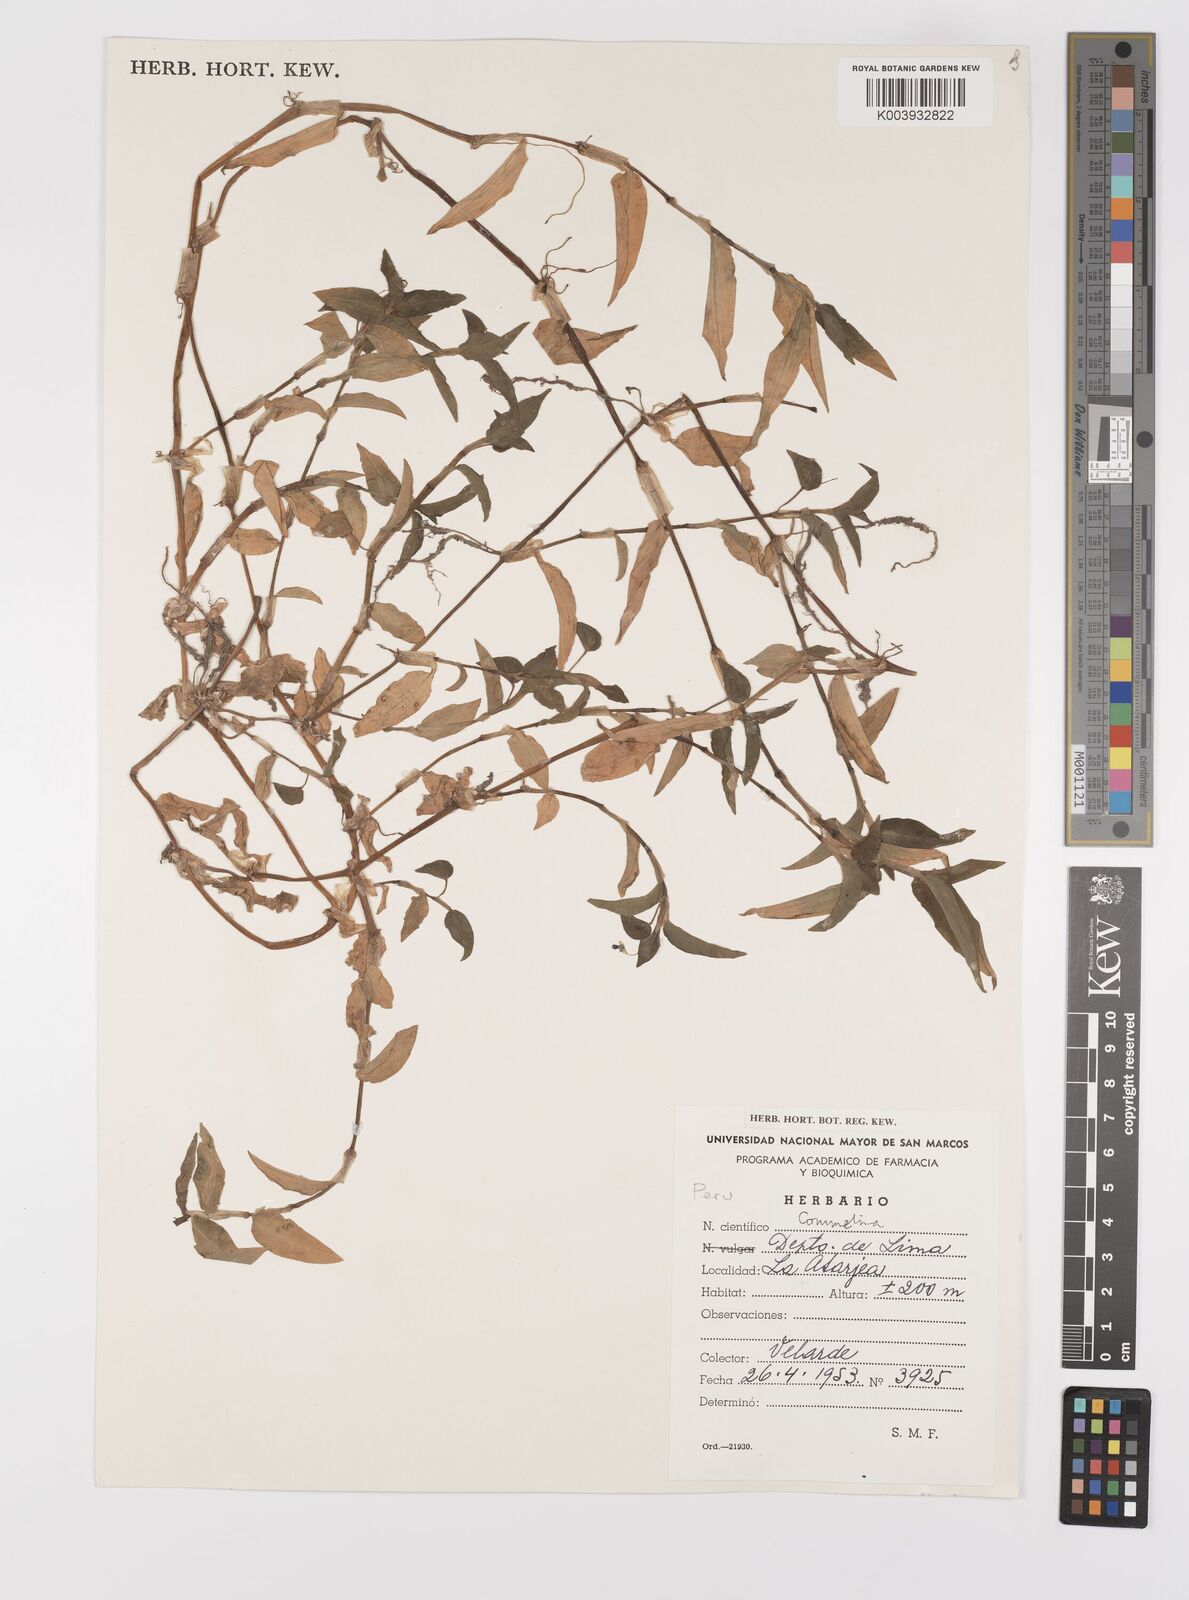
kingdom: Plantae
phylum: Tracheophyta
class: Liliopsida
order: Commelinales
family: Commelinaceae
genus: Commelina
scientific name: Commelina
